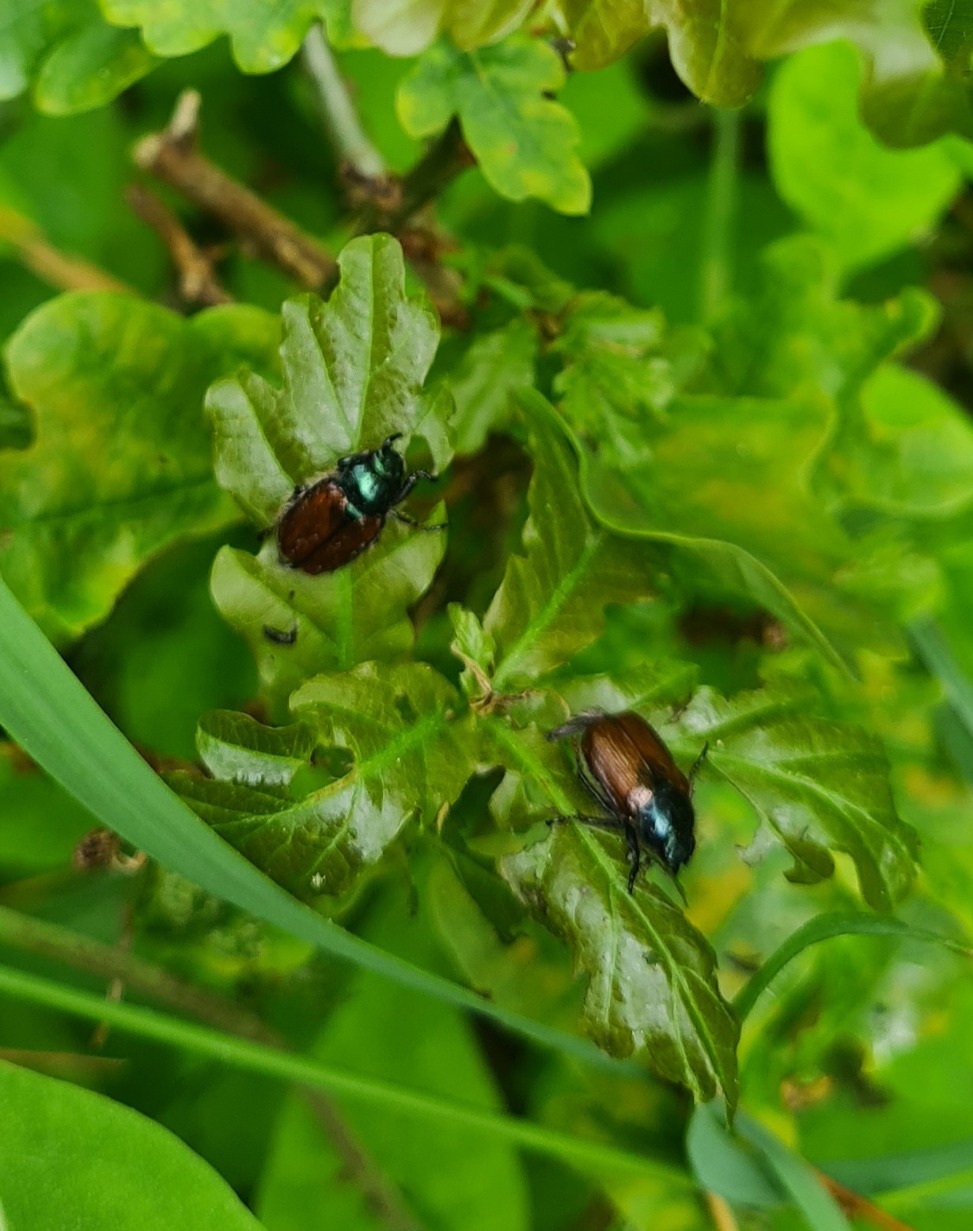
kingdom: Animalia
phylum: Arthropoda
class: Insecta
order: Coleoptera
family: Scarabaeidae
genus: Phyllopertha
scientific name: Phyllopertha horticola
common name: Gåsebille
